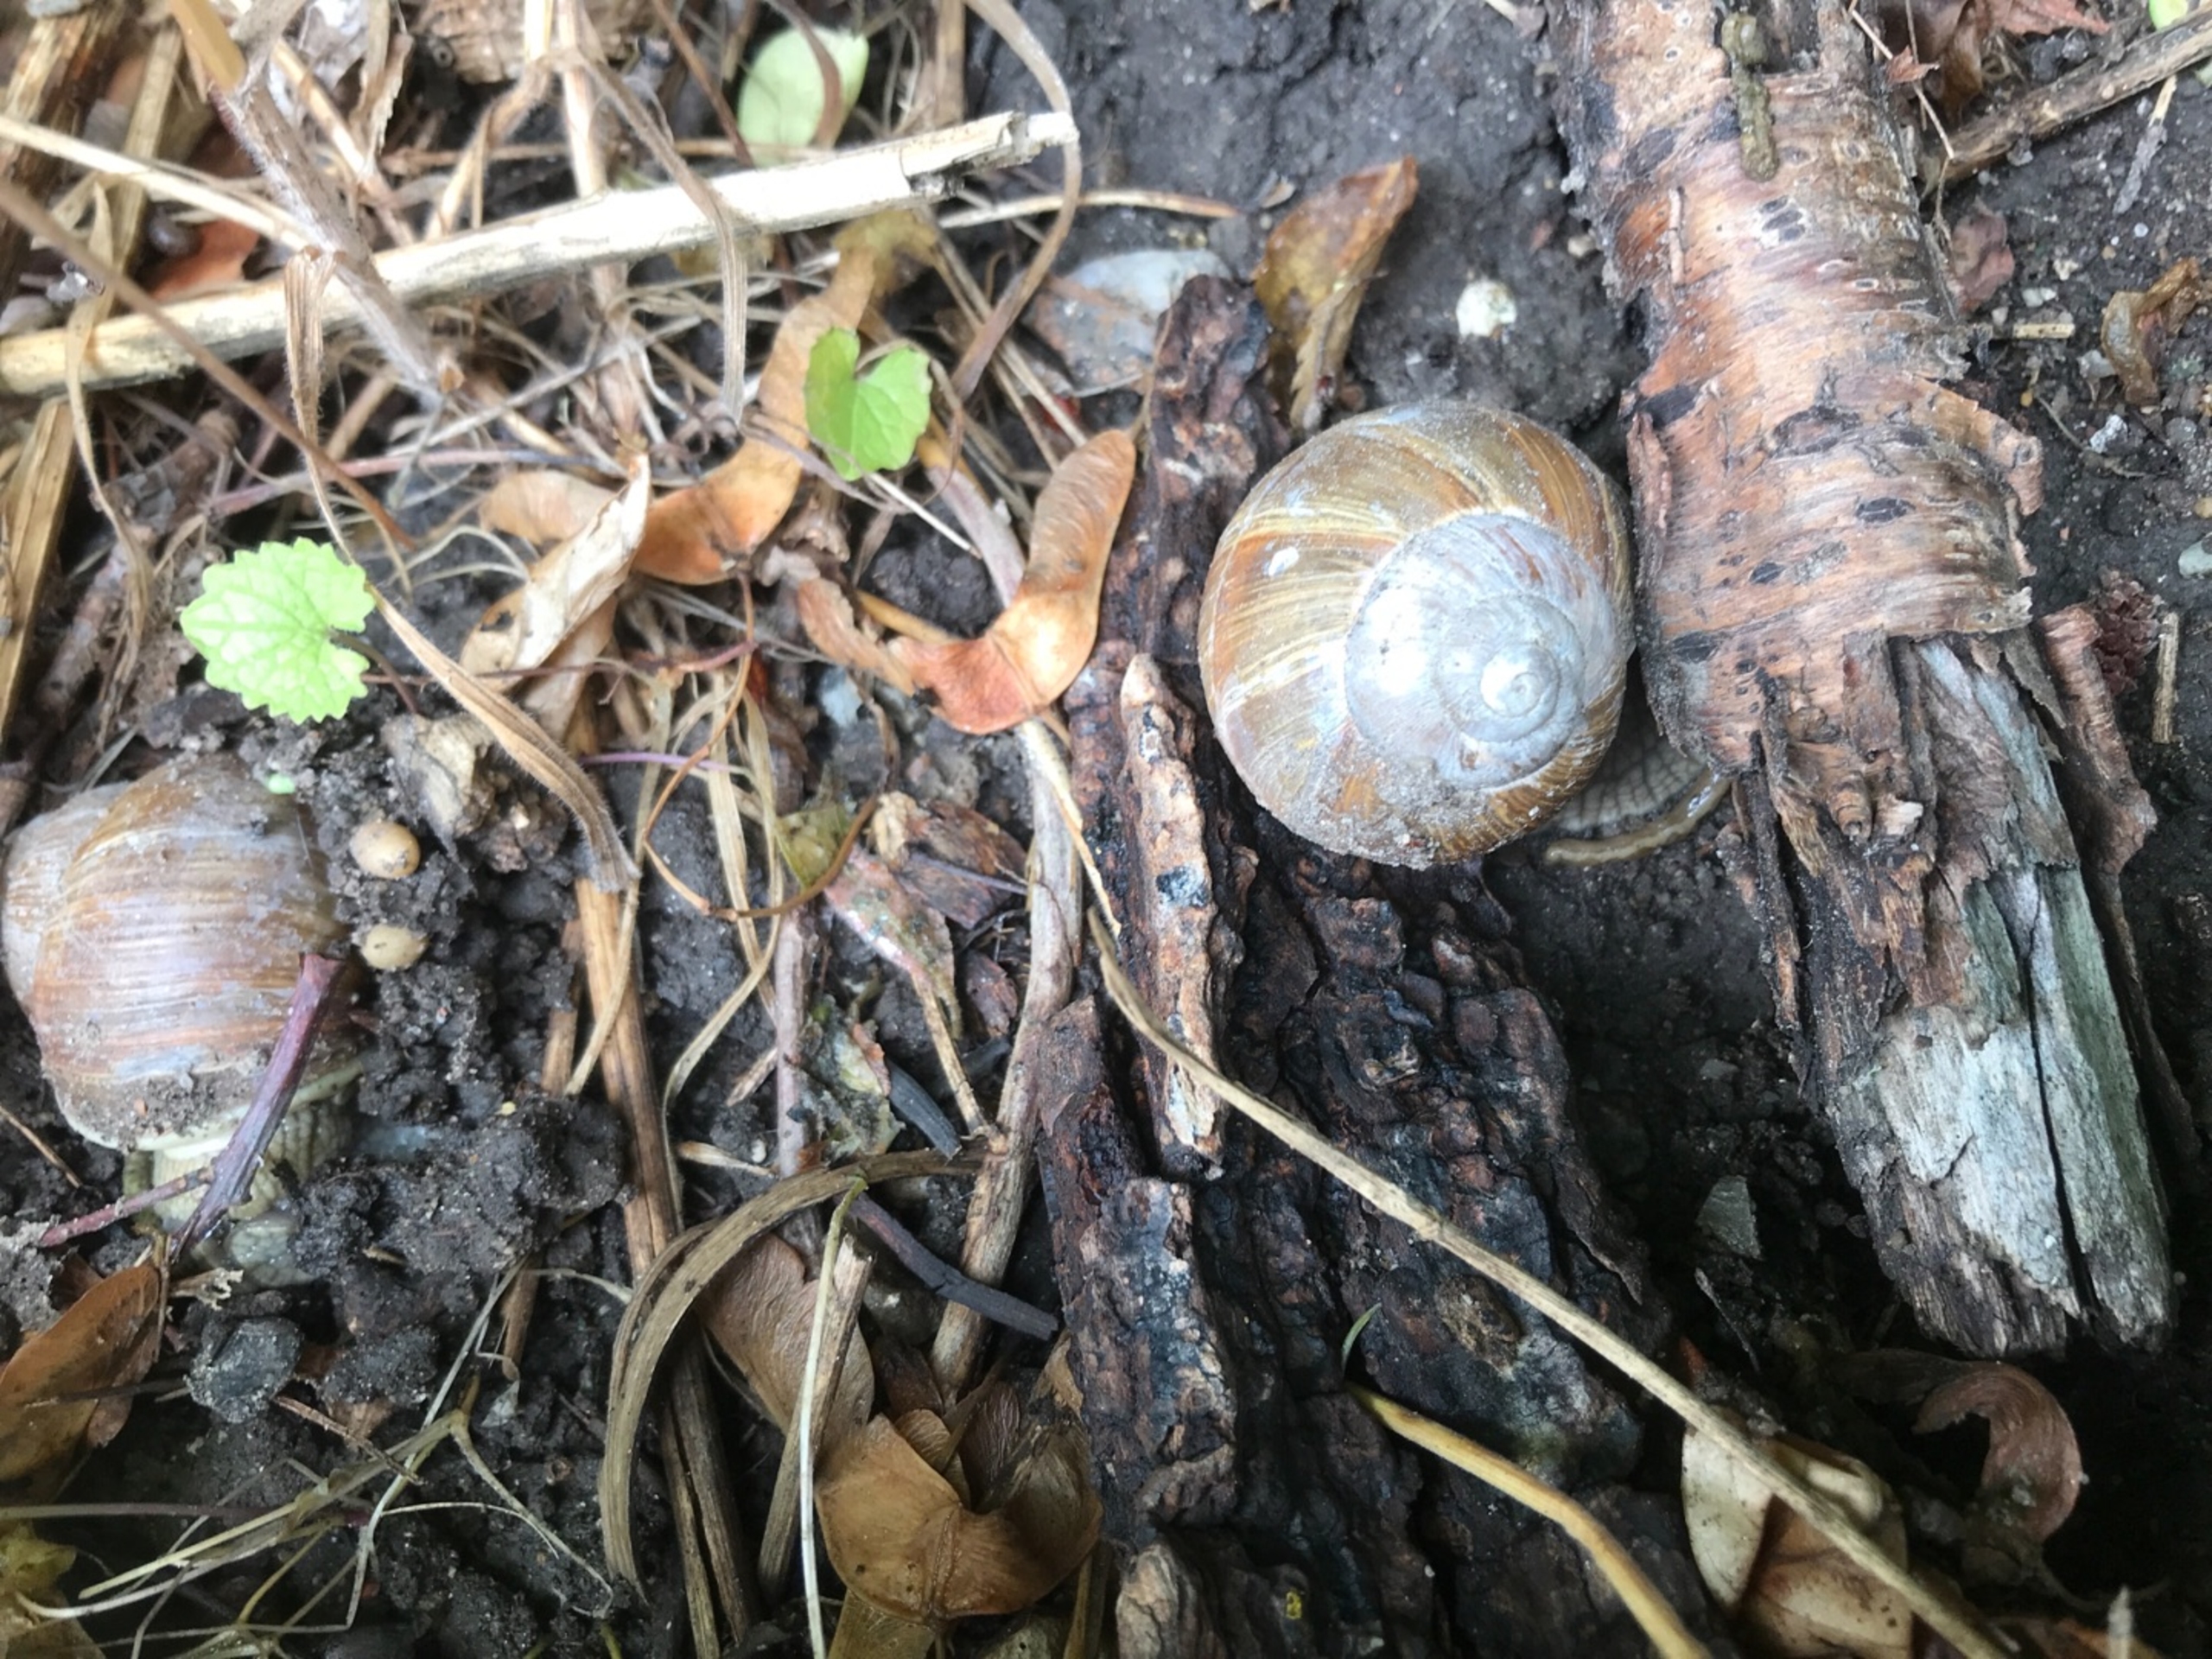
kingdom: Animalia
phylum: Mollusca
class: Gastropoda
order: Stylommatophora
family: Helicidae
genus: Helix
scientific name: Helix pomatia
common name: Vinbjergsnegl
